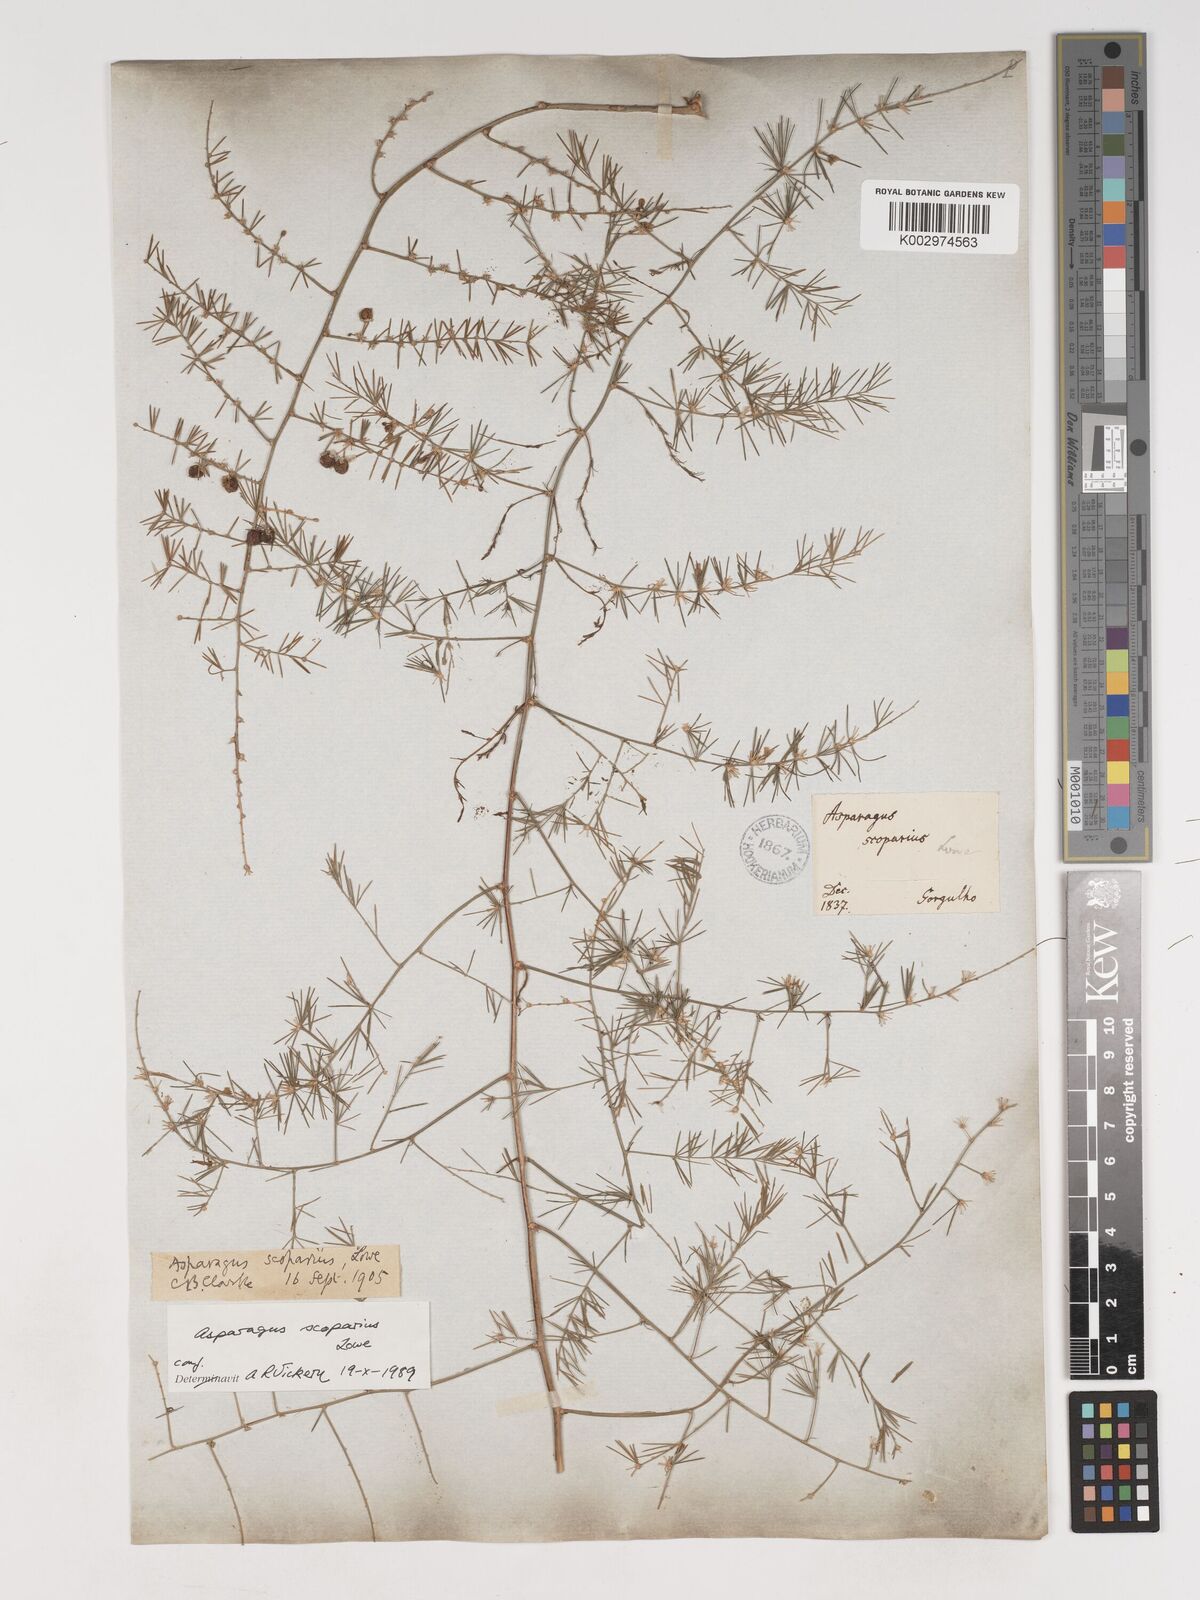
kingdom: Plantae
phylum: Tracheophyta
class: Liliopsida
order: Asparagales
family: Asparagaceae
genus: Asparagus
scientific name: Asparagus scoparius
